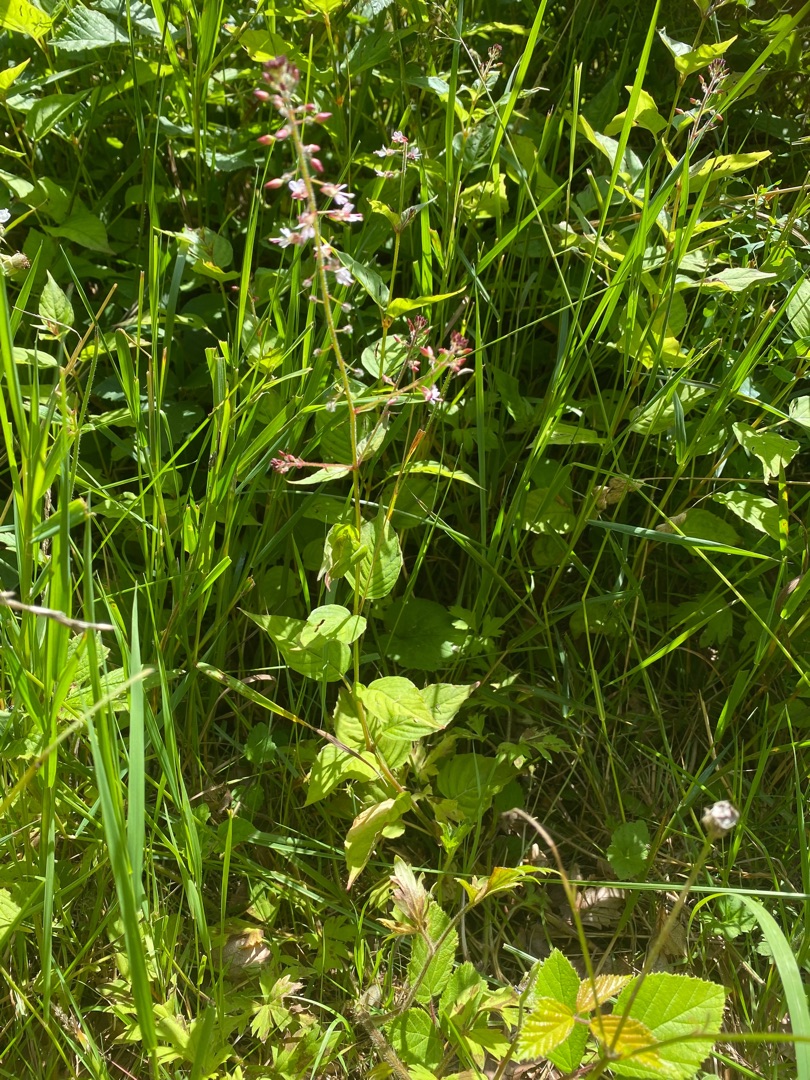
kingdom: Plantae
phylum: Tracheophyta
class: Magnoliopsida
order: Myrtales
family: Onagraceae
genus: Circaea
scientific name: Circaea lutetiana
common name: Dunet steffensurt
